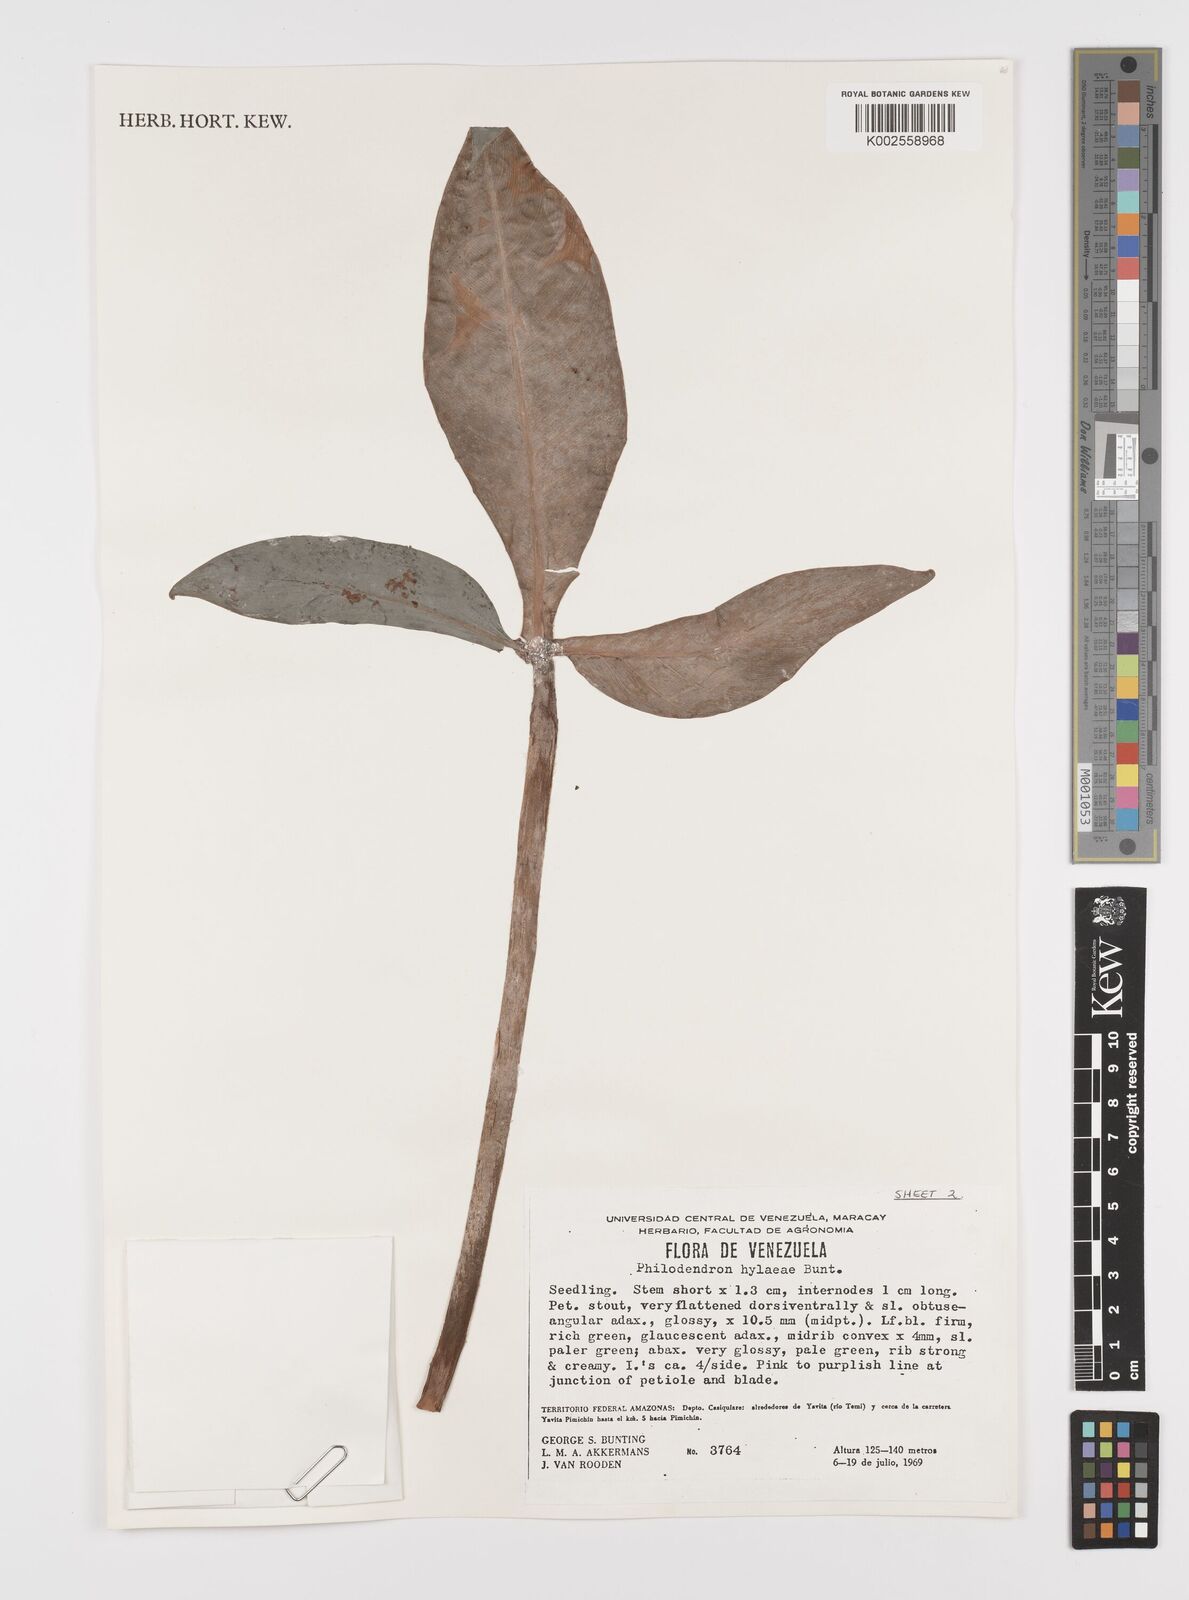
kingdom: Plantae
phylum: Tracheophyta
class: Liliopsida
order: Alismatales
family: Araceae
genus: Philodendron
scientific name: Philodendron hylaeae
